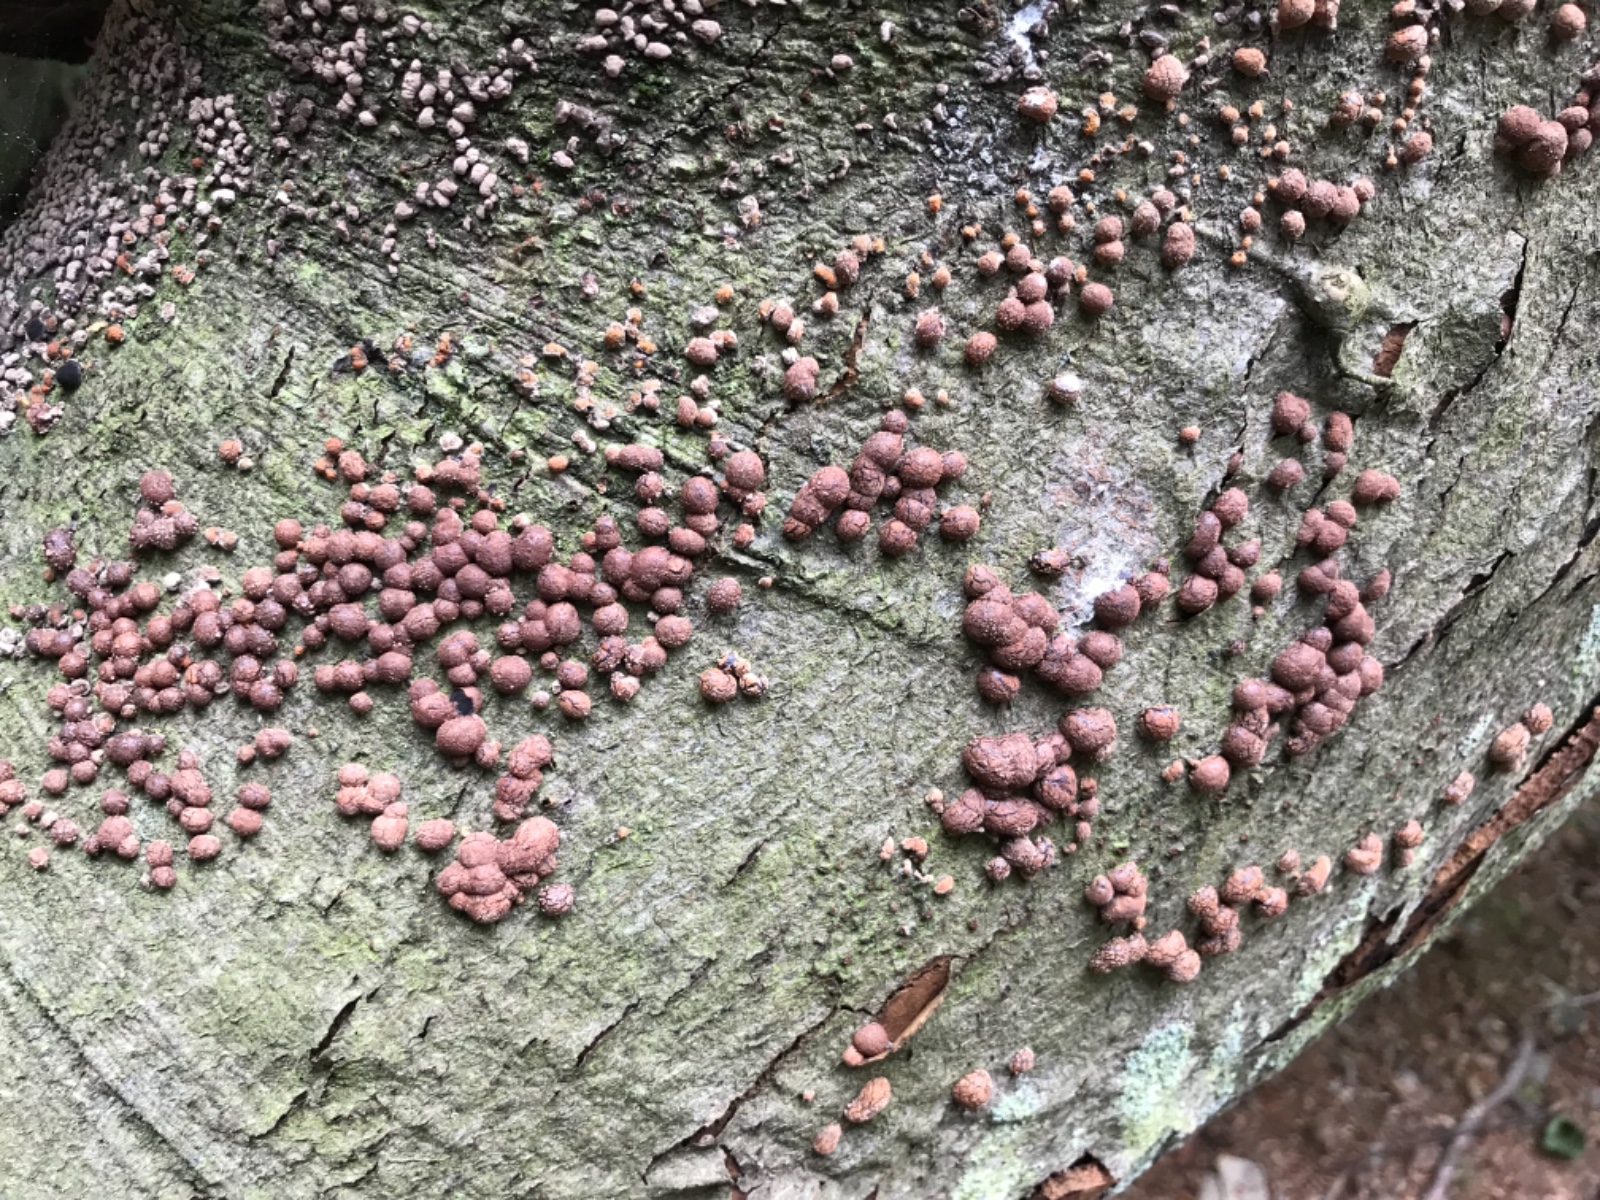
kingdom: Fungi
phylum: Ascomycota
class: Sordariomycetes
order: Xylariales
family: Hypoxylaceae
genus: Hypoxylon
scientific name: Hypoxylon fragiforme
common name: kuljordbær
